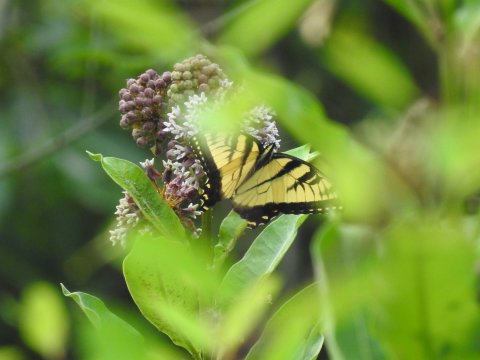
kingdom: Animalia
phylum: Arthropoda
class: Insecta
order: Lepidoptera
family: Papilionidae
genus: Pterourus
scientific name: Pterourus glaucus
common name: Eastern Tiger Swallowtail
